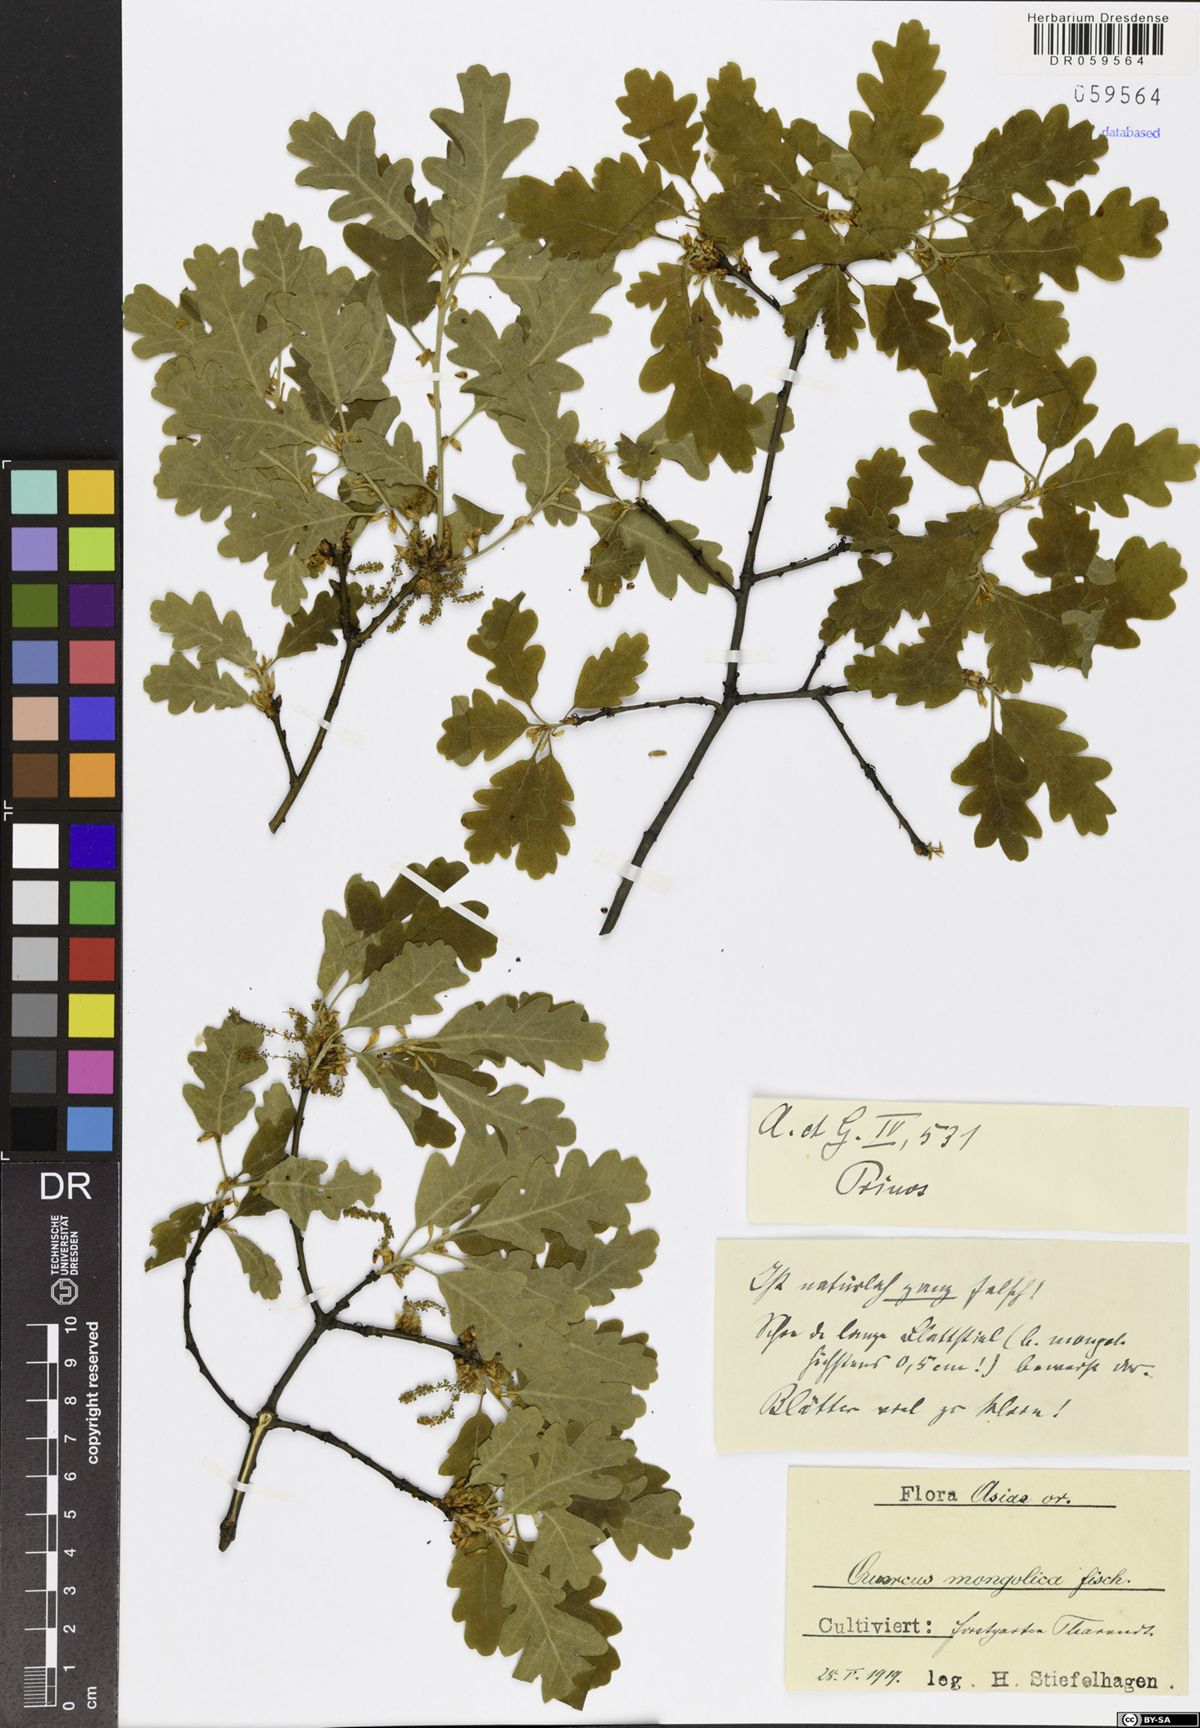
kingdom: Plantae
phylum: Tracheophyta
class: Magnoliopsida
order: Fagales
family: Fagaceae
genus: Quercus
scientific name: Quercus mongolica
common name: Mongolian oak
